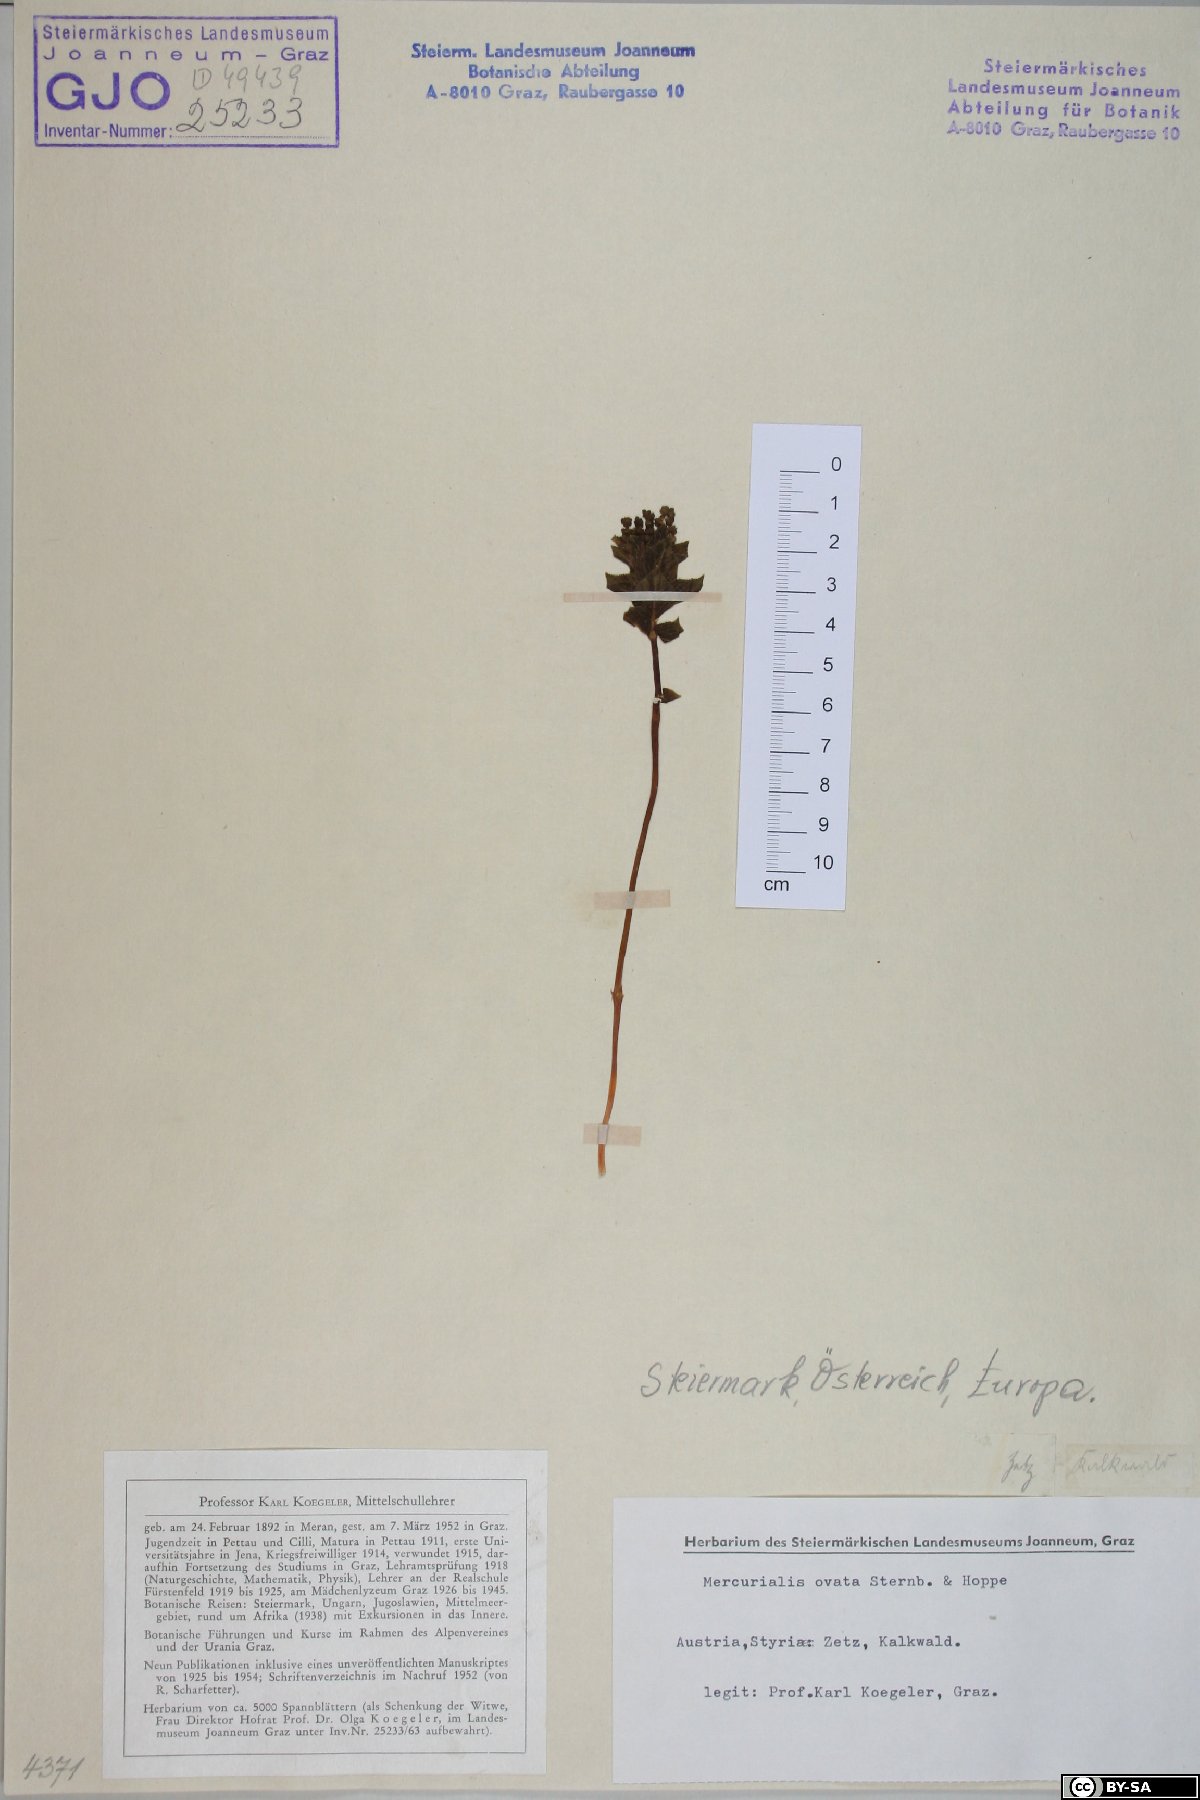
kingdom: Plantae
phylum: Tracheophyta
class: Magnoliopsida
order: Malpighiales
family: Euphorbiaceae
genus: Mercurialis
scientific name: Mercurialis ovata
